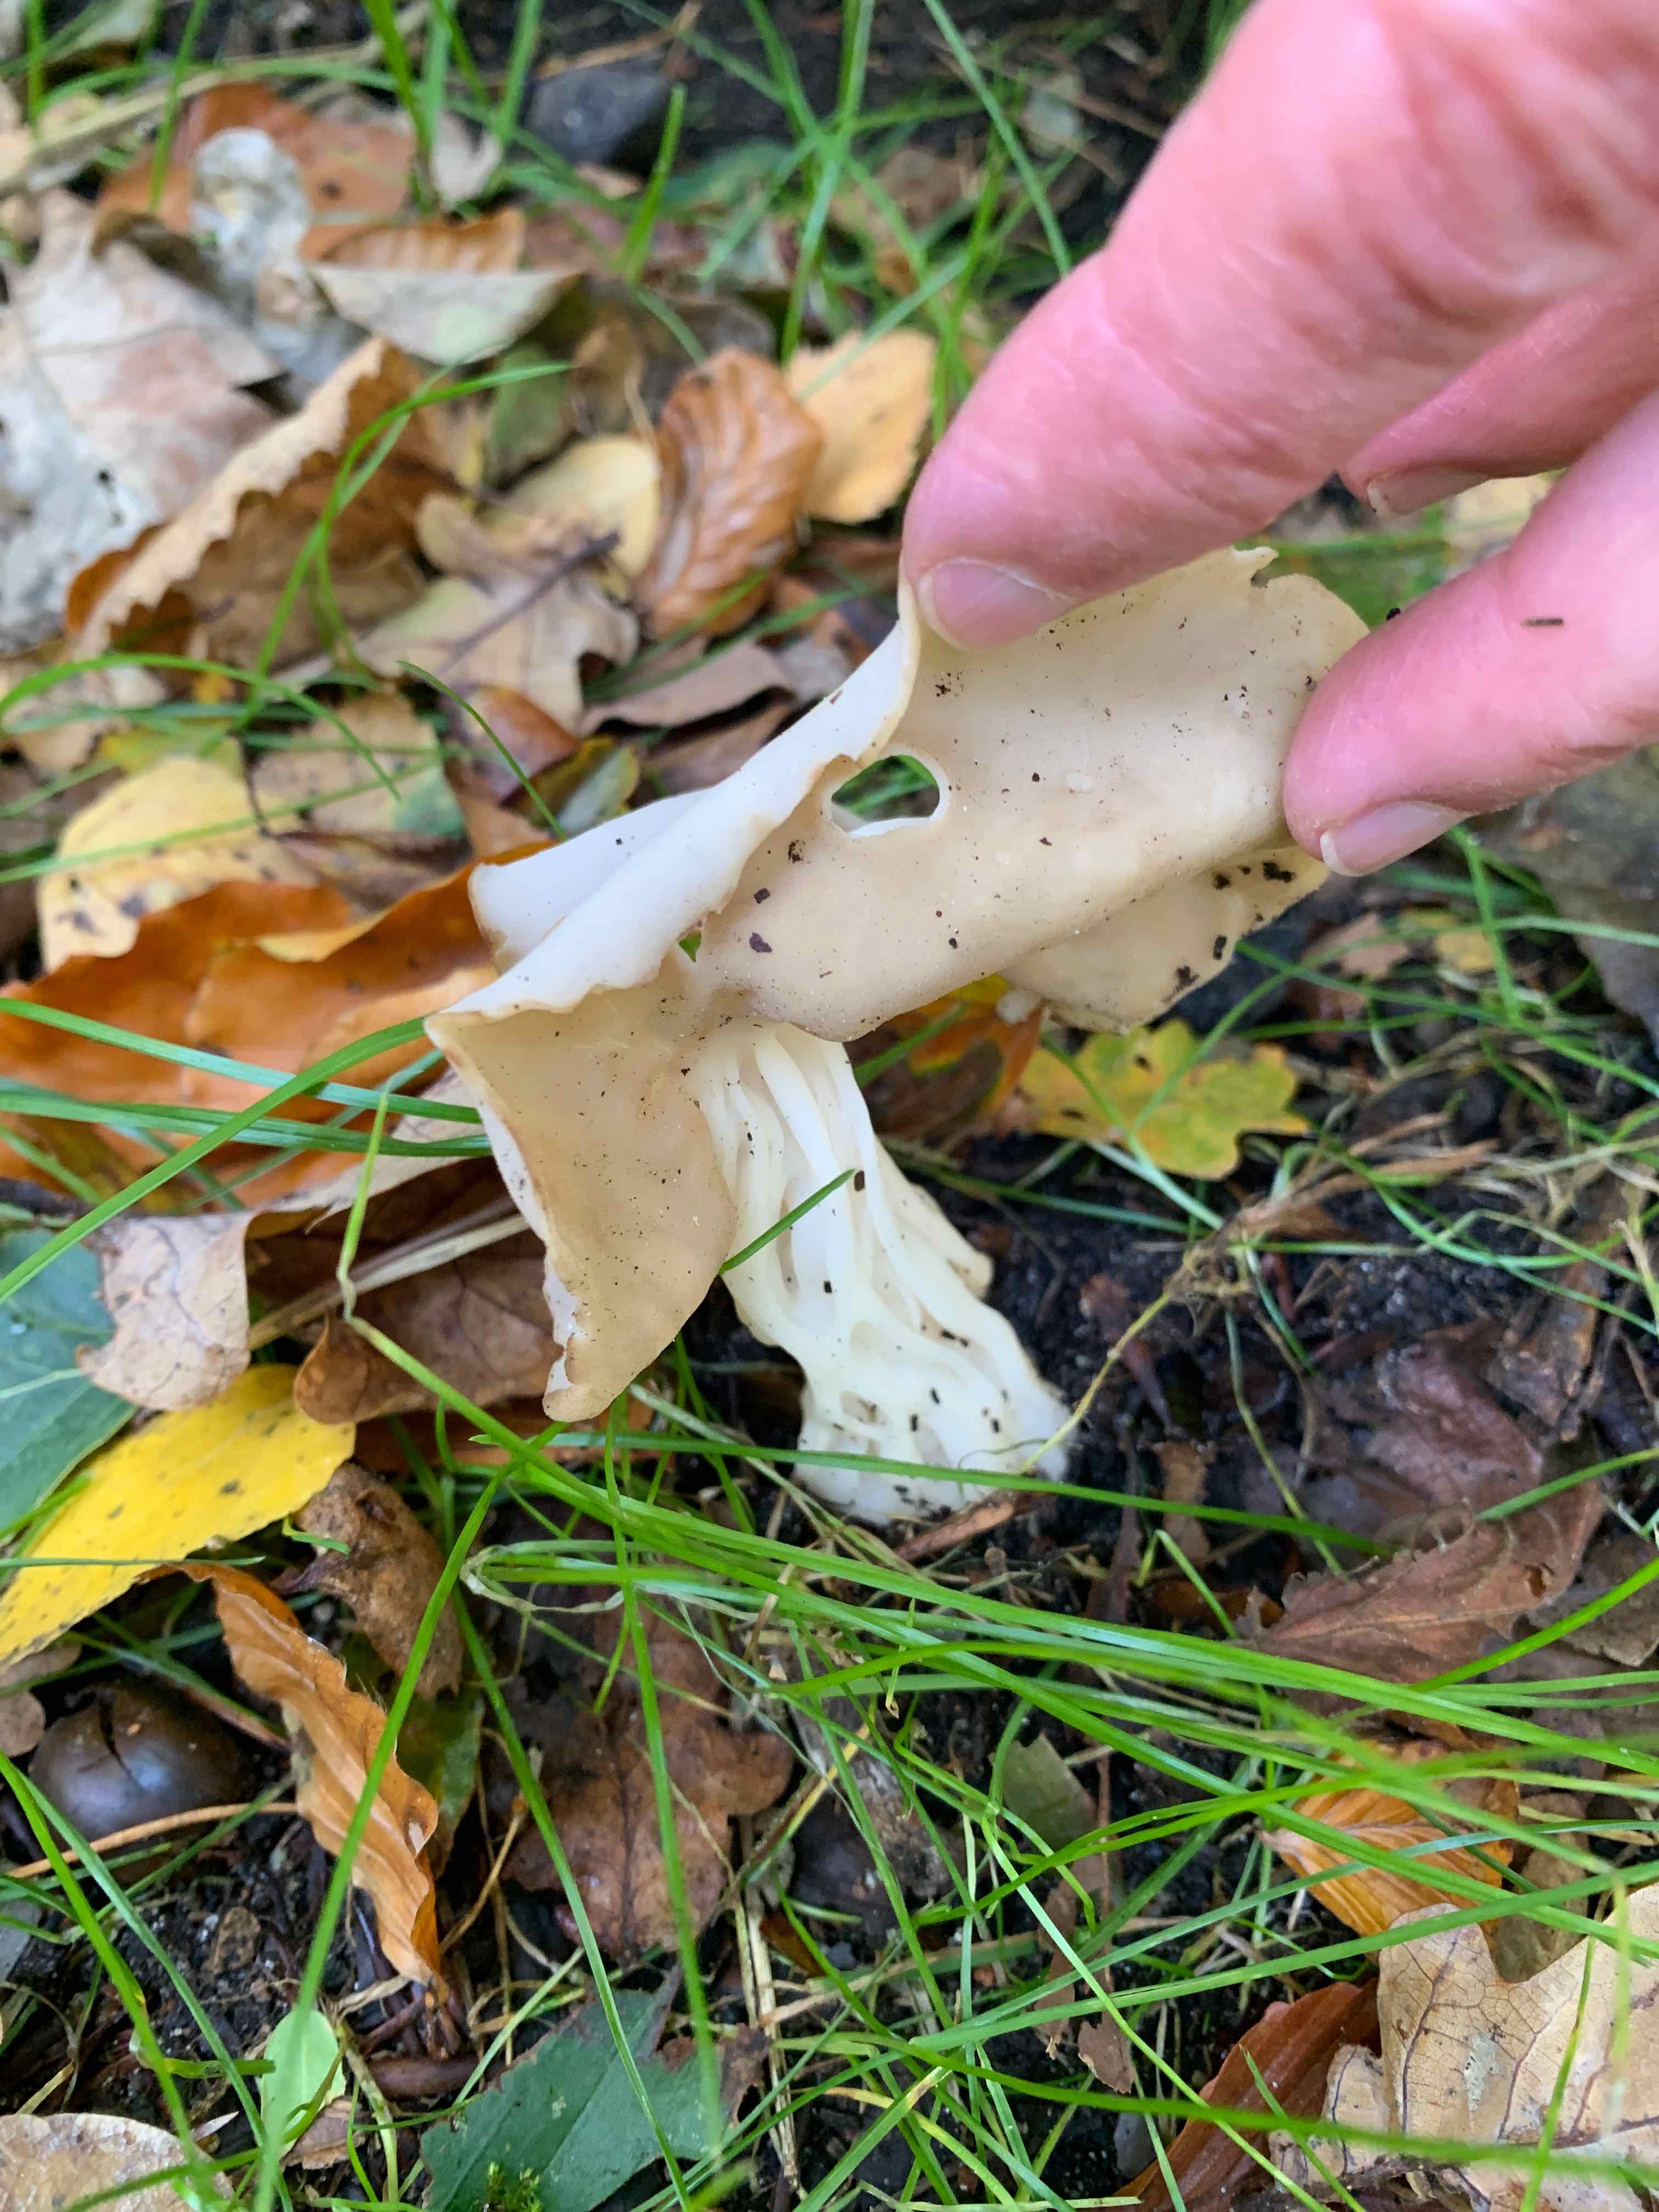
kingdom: Fungi
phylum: Ascomycota
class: Pezizomycetes
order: Pezizales
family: Helvellaceae
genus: Helvella
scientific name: Helvella crispa
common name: kruset foldhat
